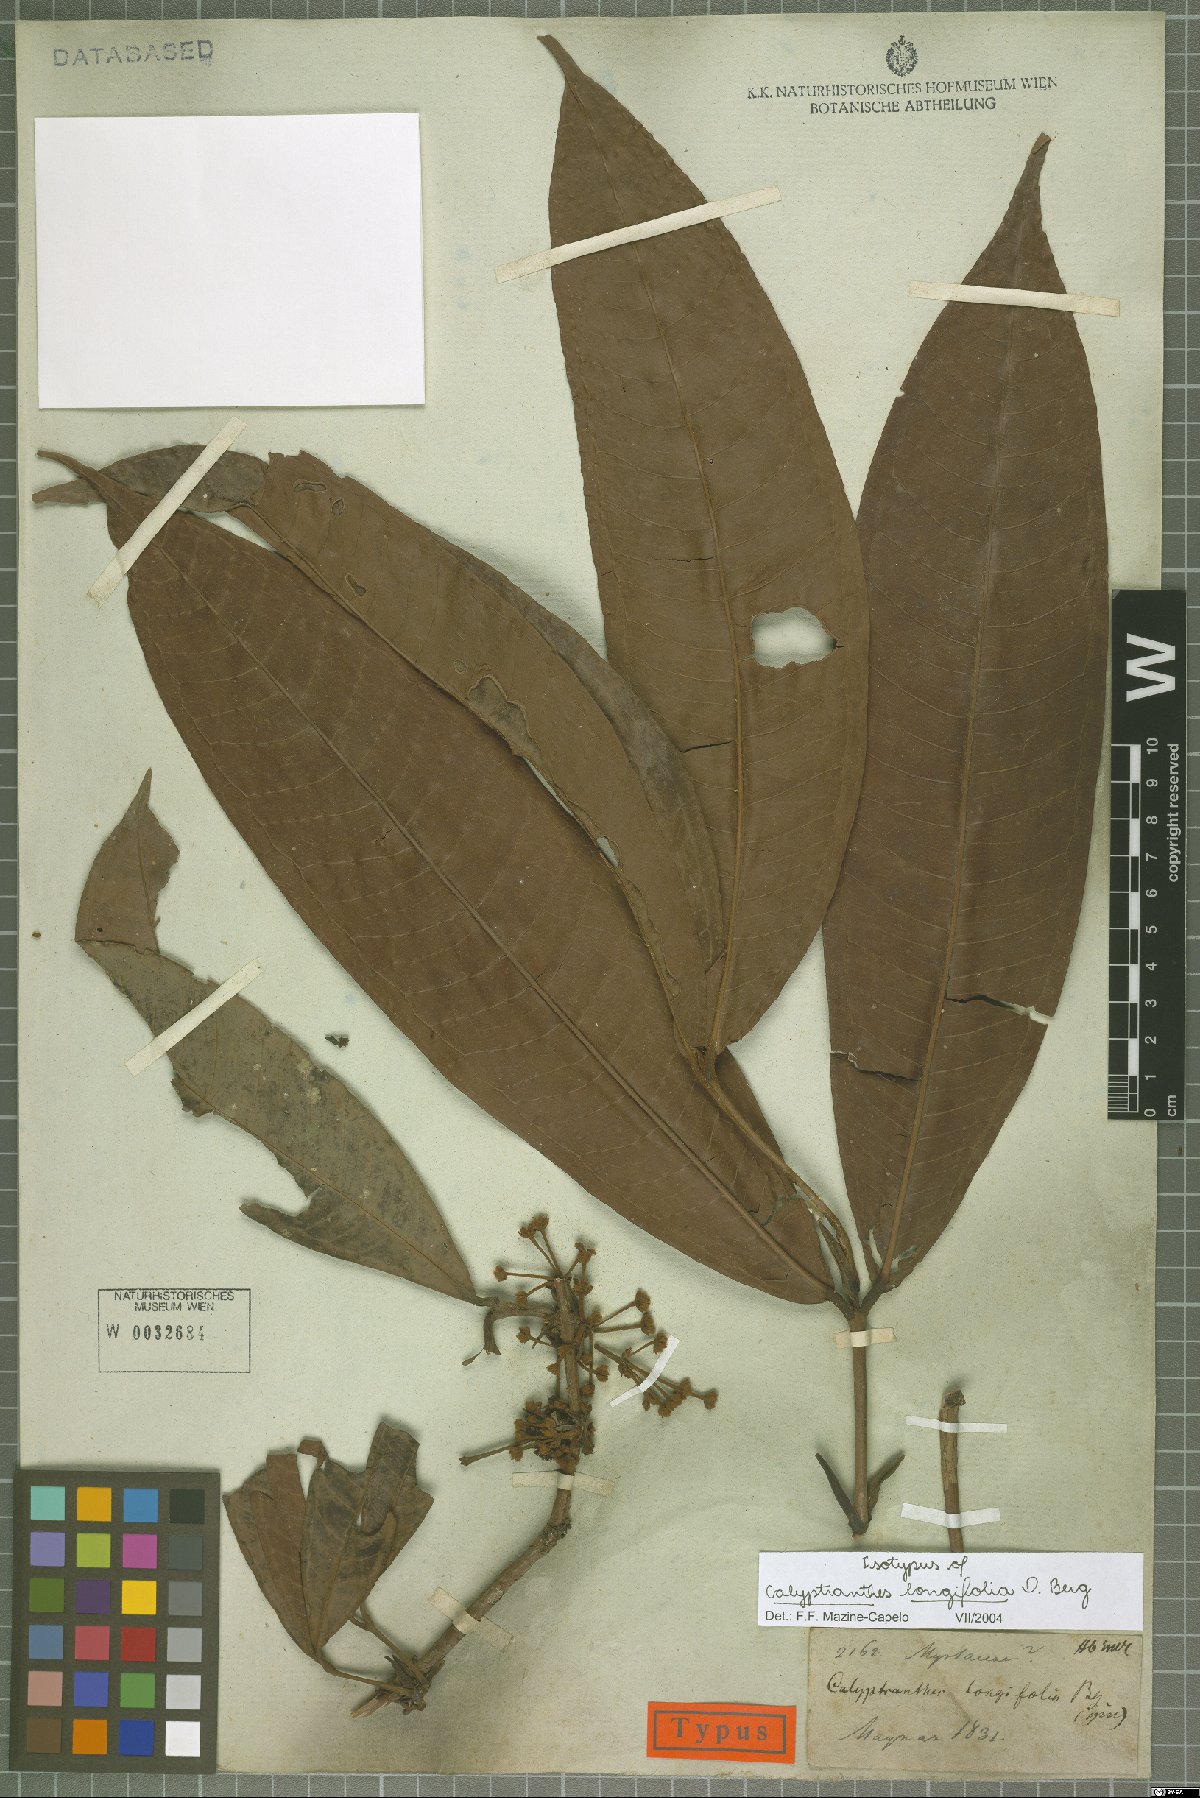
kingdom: Plantae
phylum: Tracheophyta
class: Magnoliopsida
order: Myrtales
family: Myrtaceae
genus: Myrcia
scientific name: Myrcia telephylla
